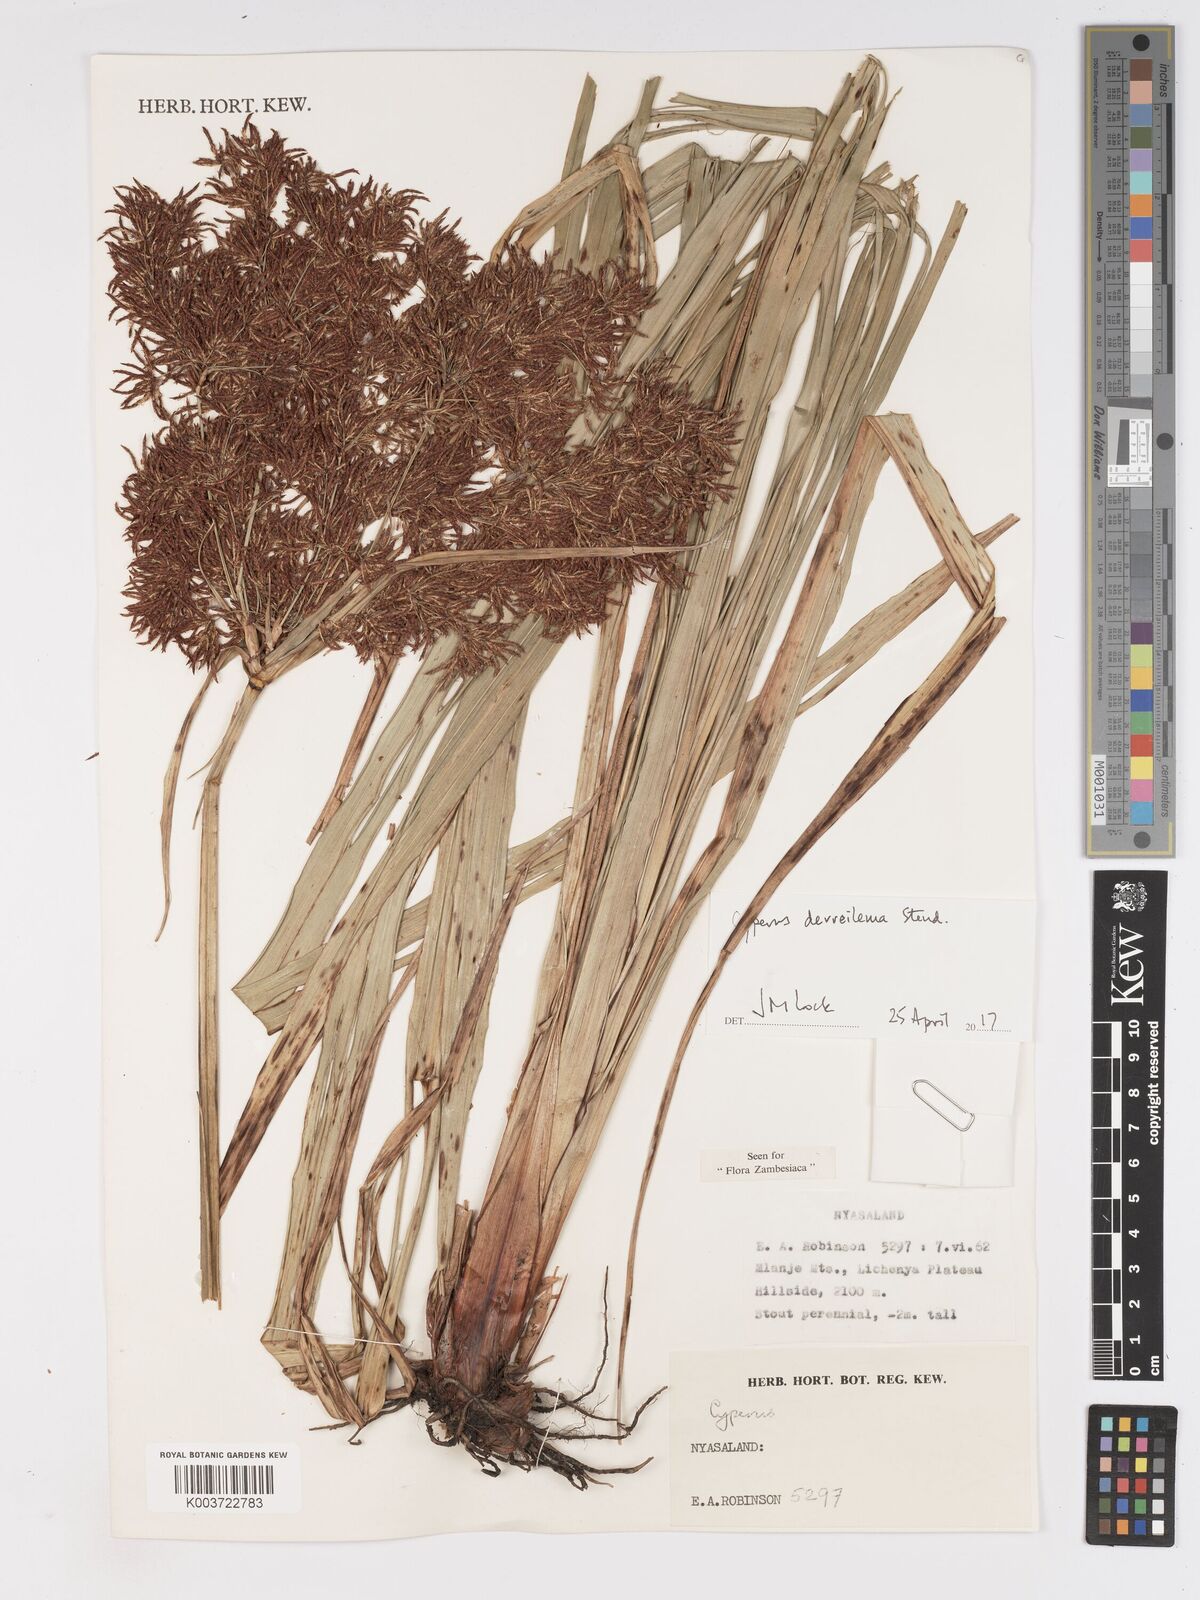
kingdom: Plantae
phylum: Tracheophyta
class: Liliopsida
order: Poales
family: Cyperaceae
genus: Cyperus
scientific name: Cyperus derreilema
